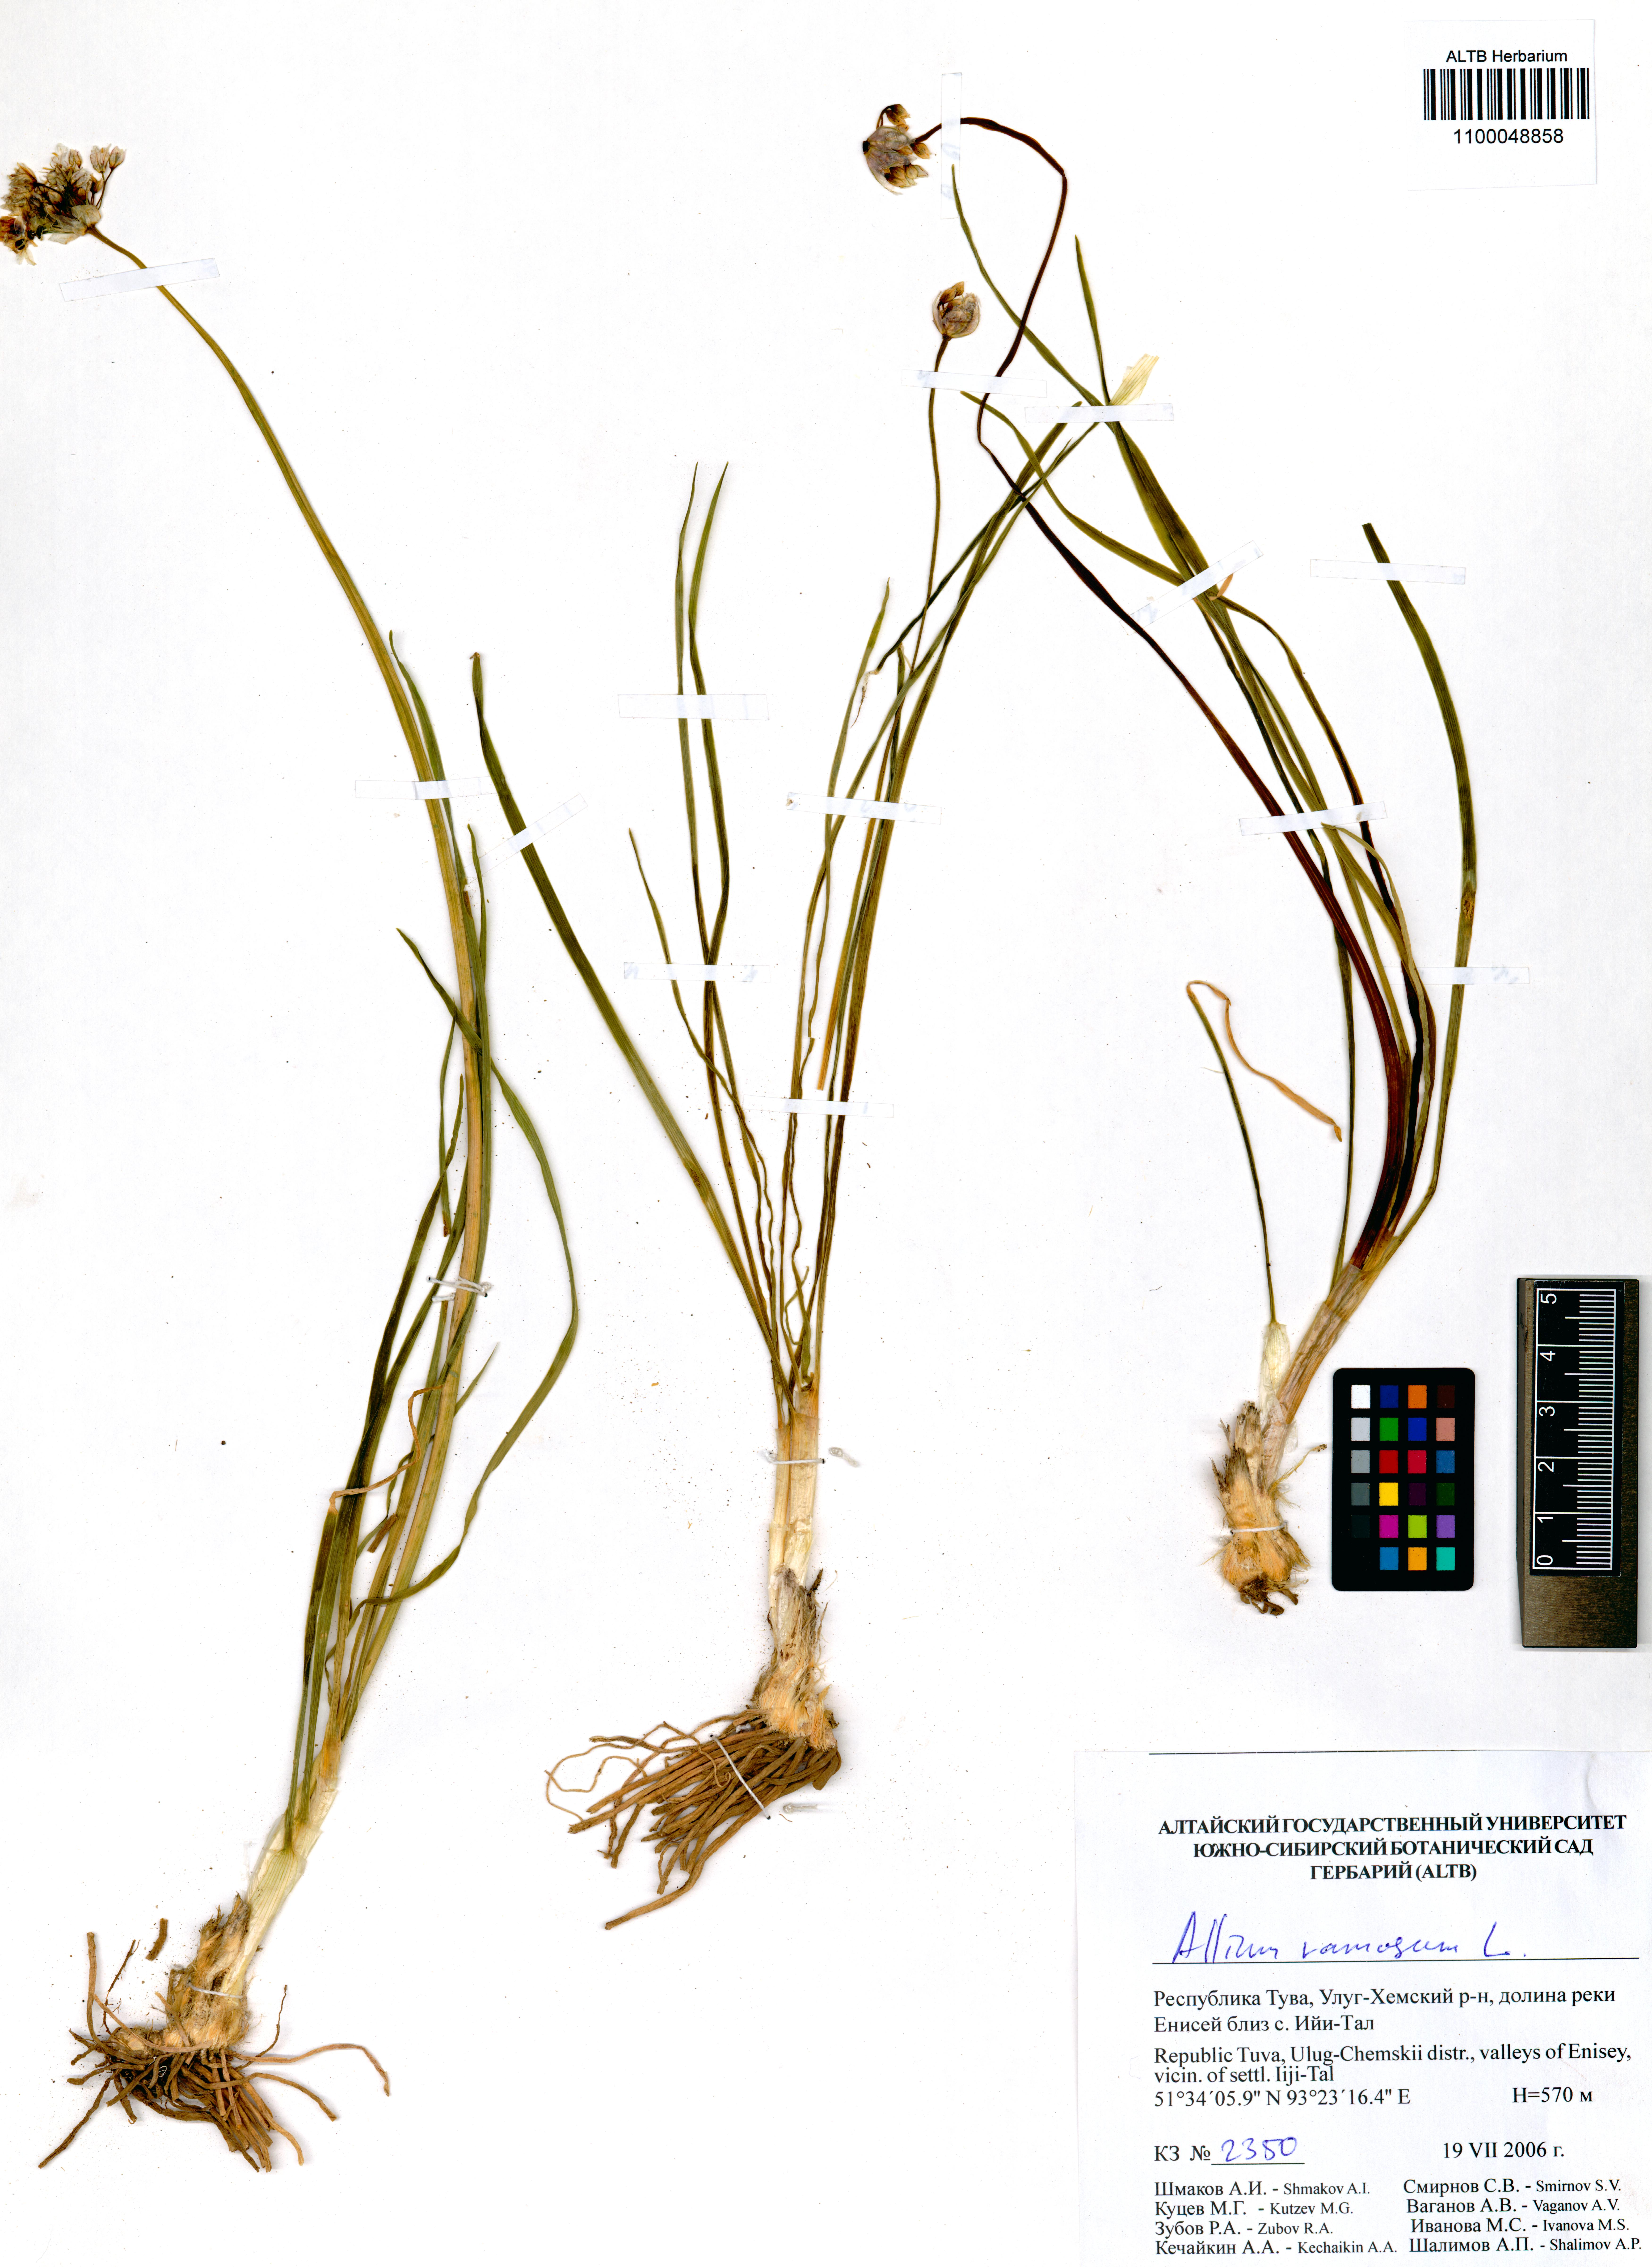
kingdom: Plantae
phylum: Tracheophyta
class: Liliopsida
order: Asparagales
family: Amaryllidaceae
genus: Allium
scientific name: Allium ramosum
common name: Fragrant garlic
